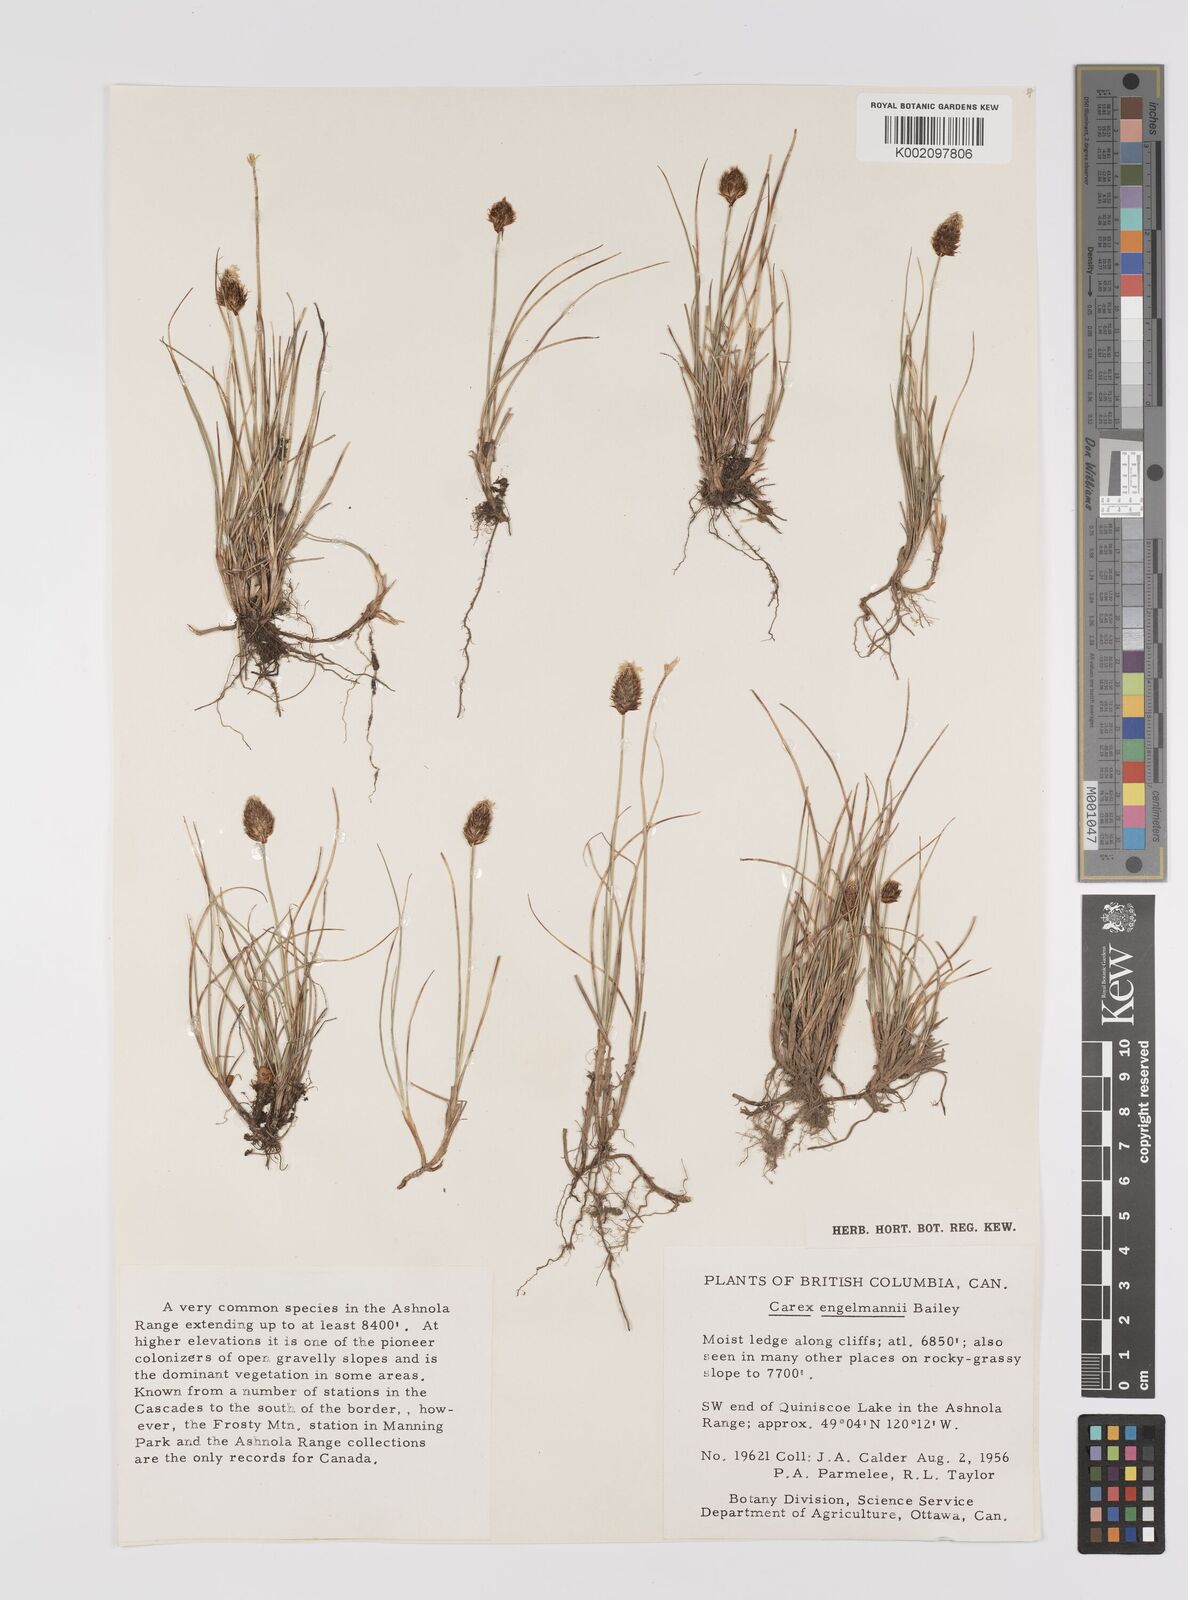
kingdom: Plantae
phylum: Tracheophyta
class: Liliopsida
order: Poales
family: Cyperaceae
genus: Carex
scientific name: Carex engelmannii
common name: Engelmann's sedge
